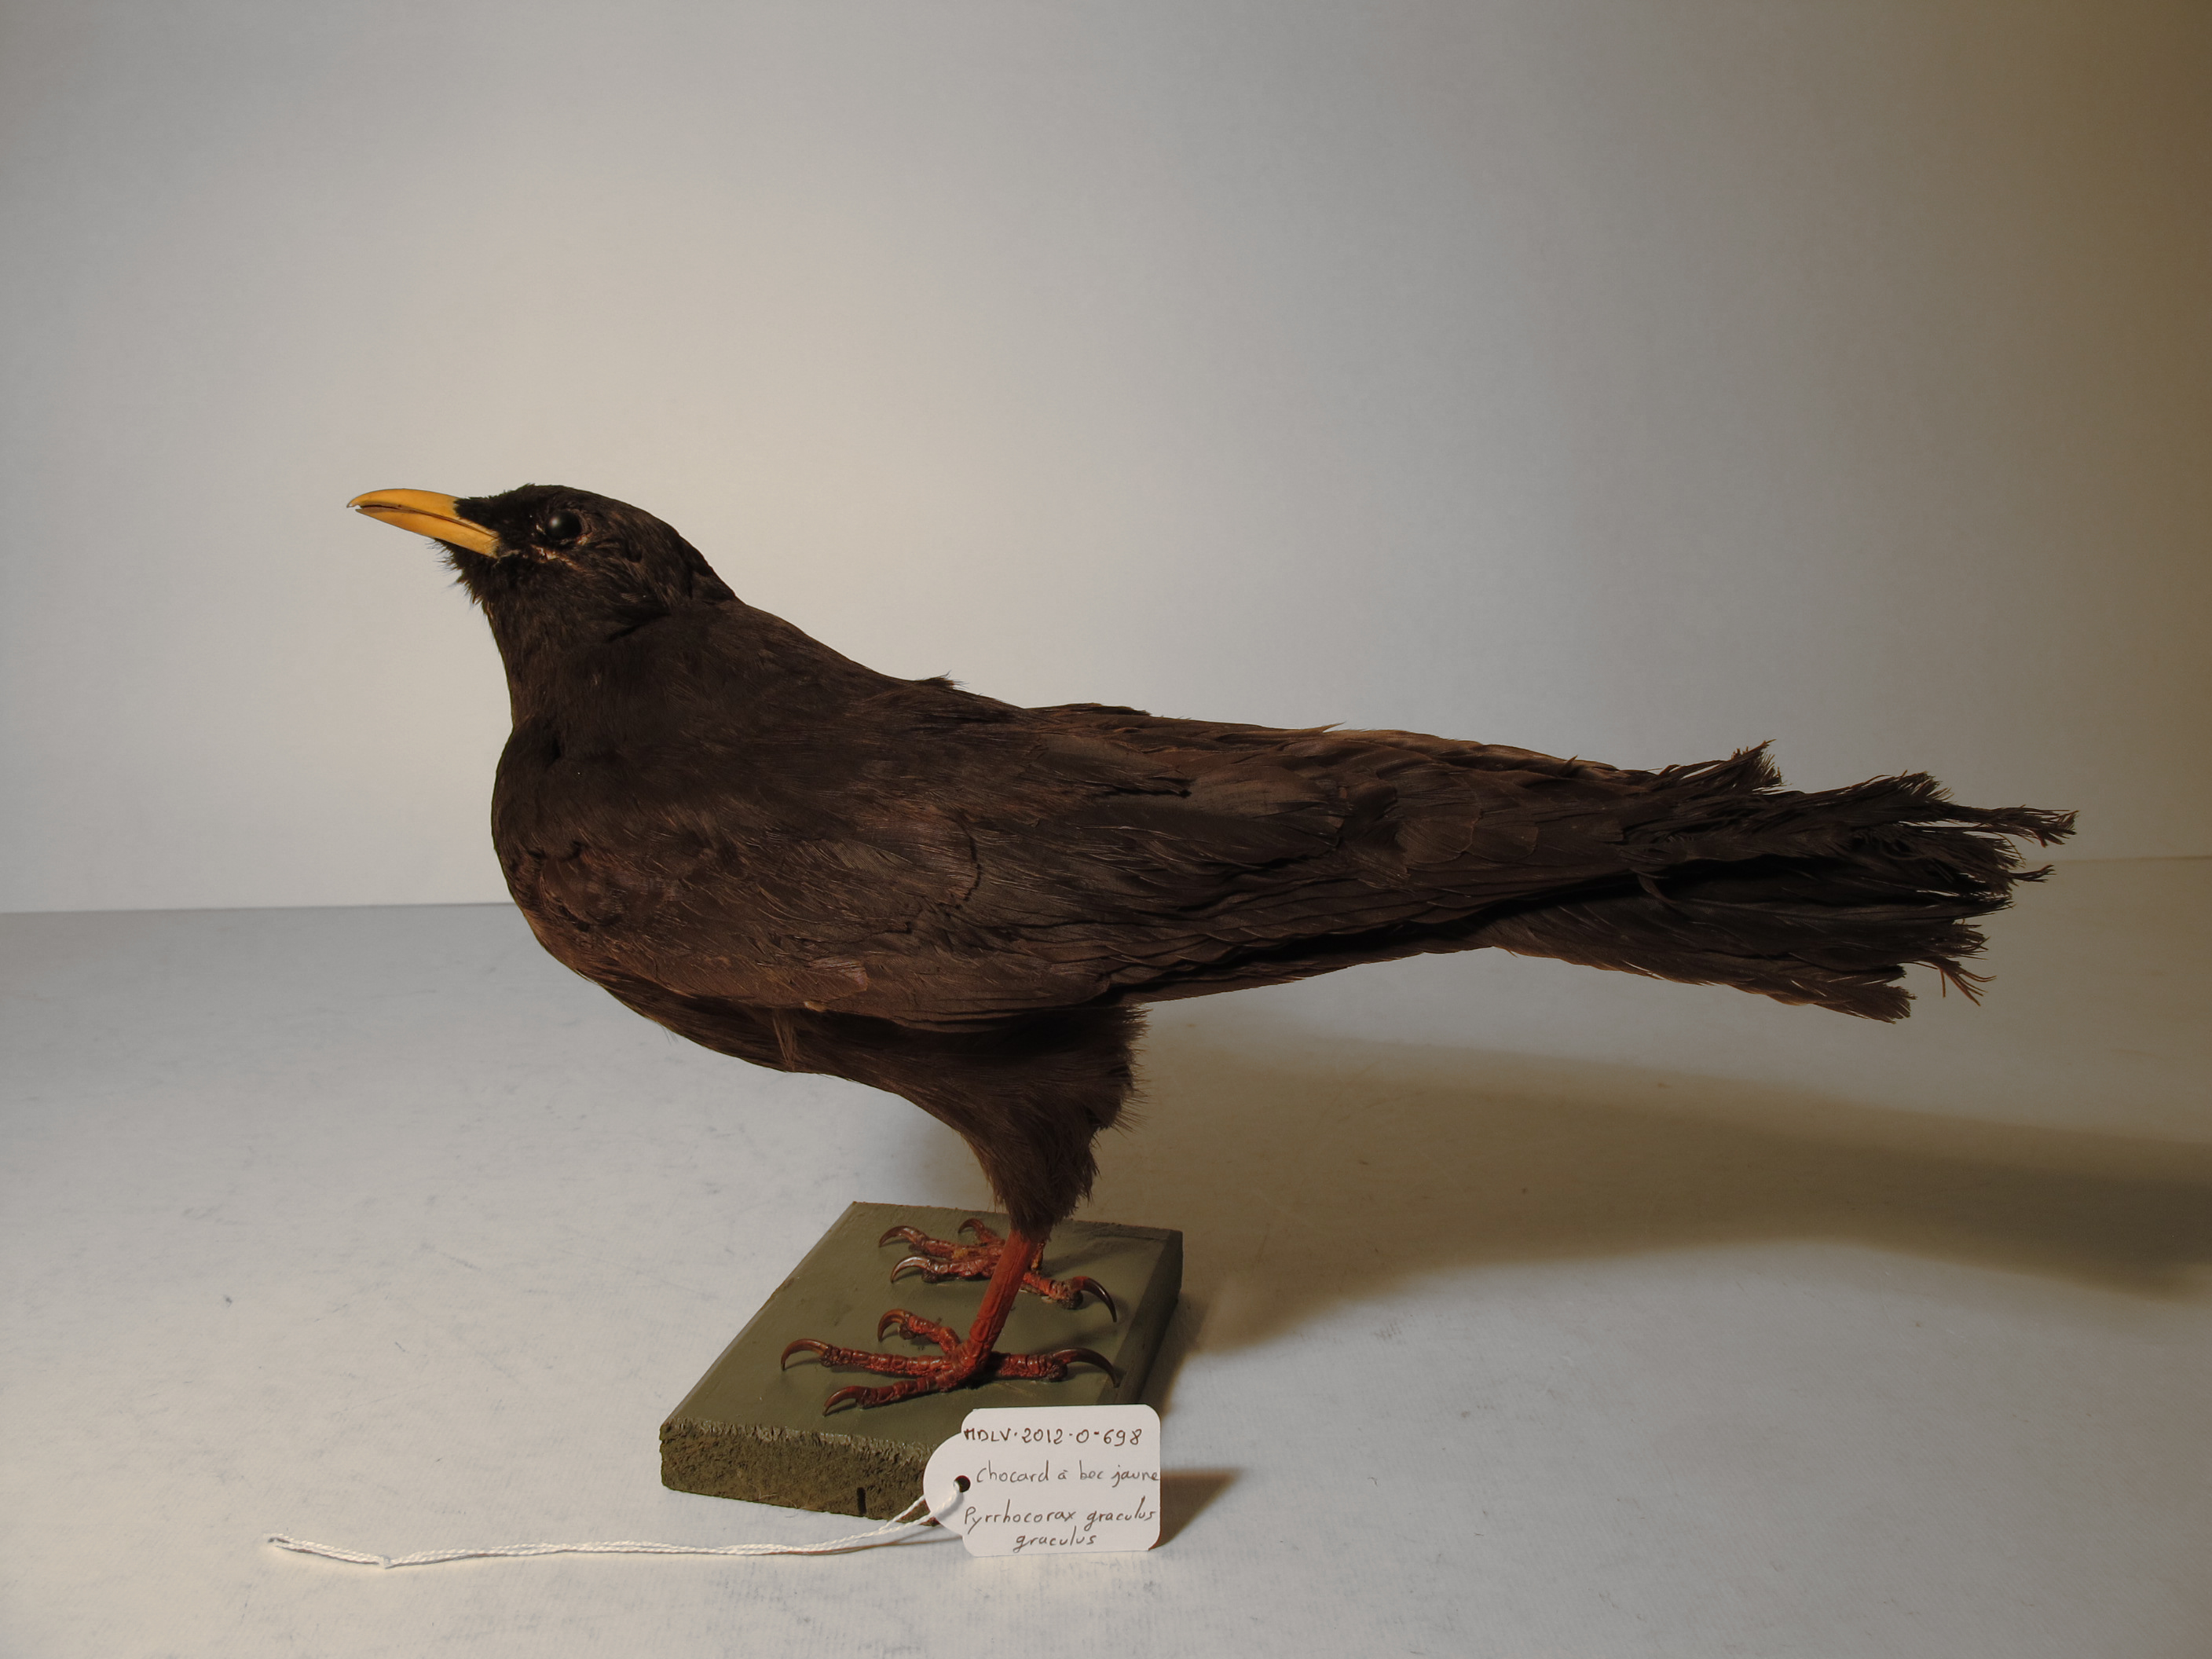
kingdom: Animalia
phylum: Chordata
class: Aves
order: Passeriformes
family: Corvidae
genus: Pyrrhocorax
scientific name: Pyrrhocorax graculus
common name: Yellow-billed Chough
